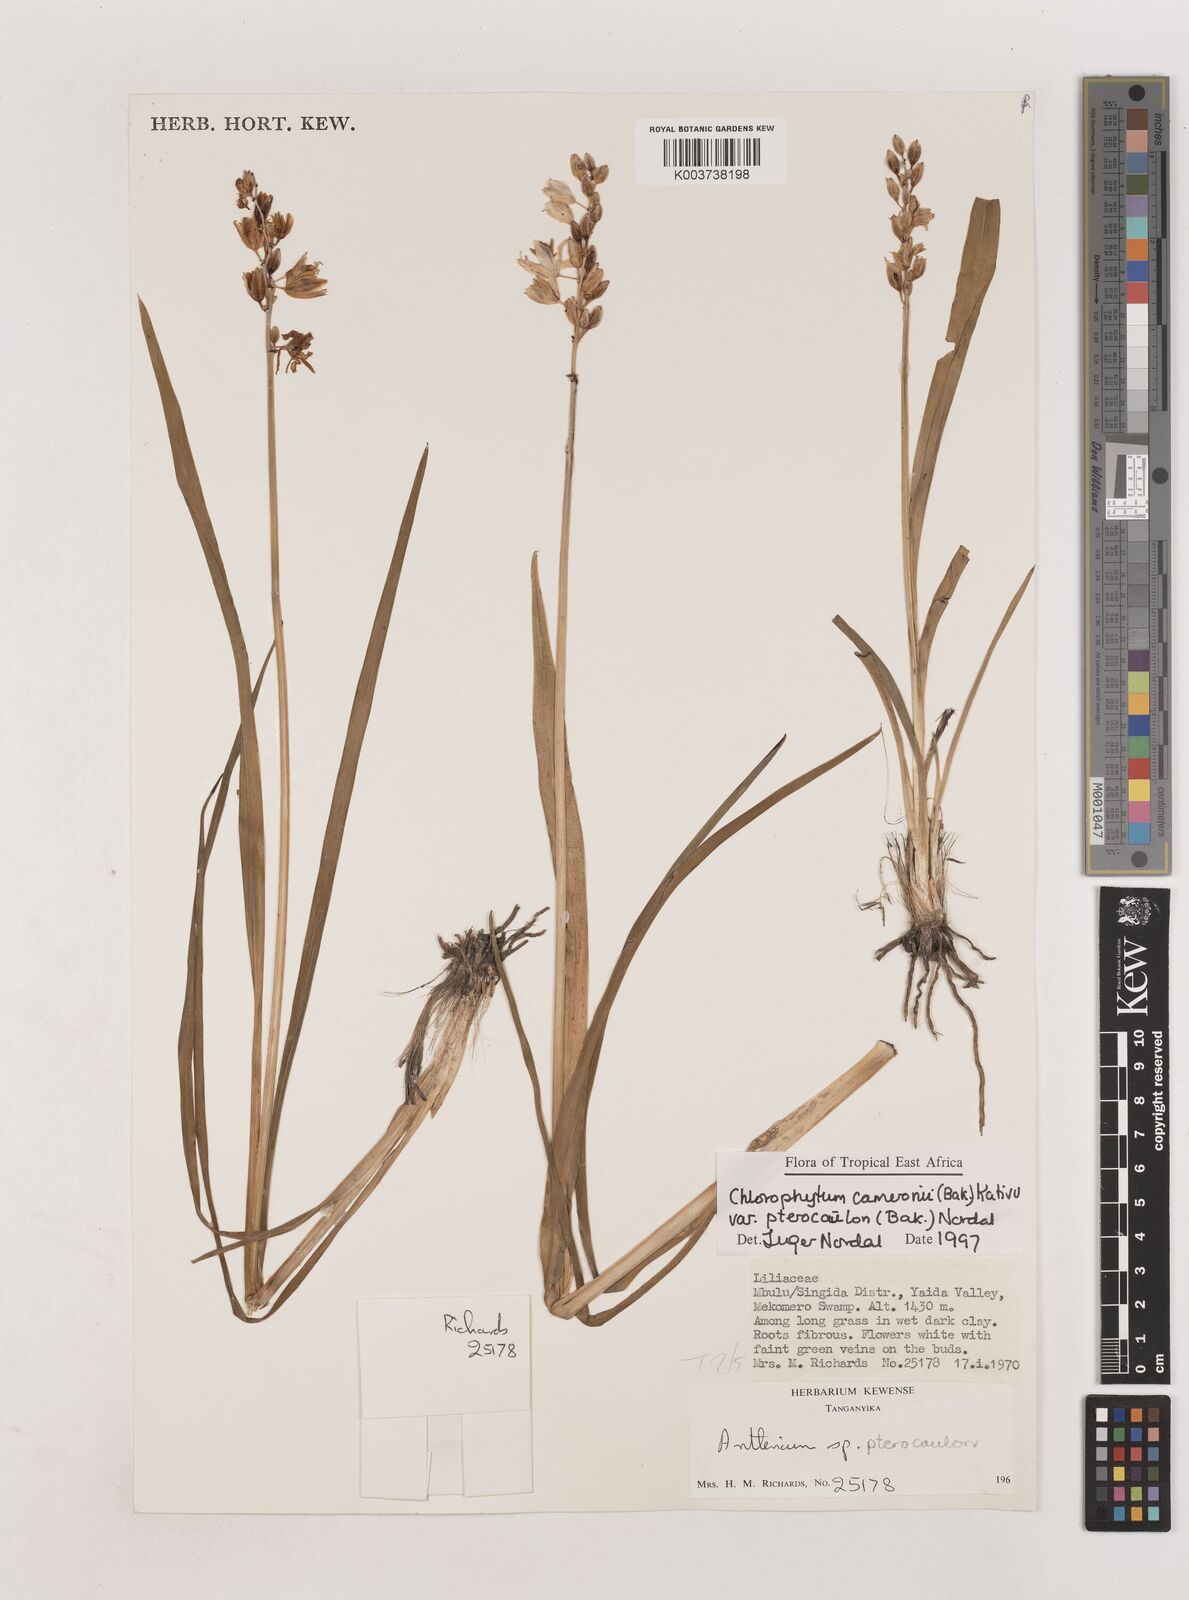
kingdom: Plantae
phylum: Tracheophyta
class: Liliopsida
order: Asparagales
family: Asparagaceae
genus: Chlorophytum
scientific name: Chlorophytum cameronii
